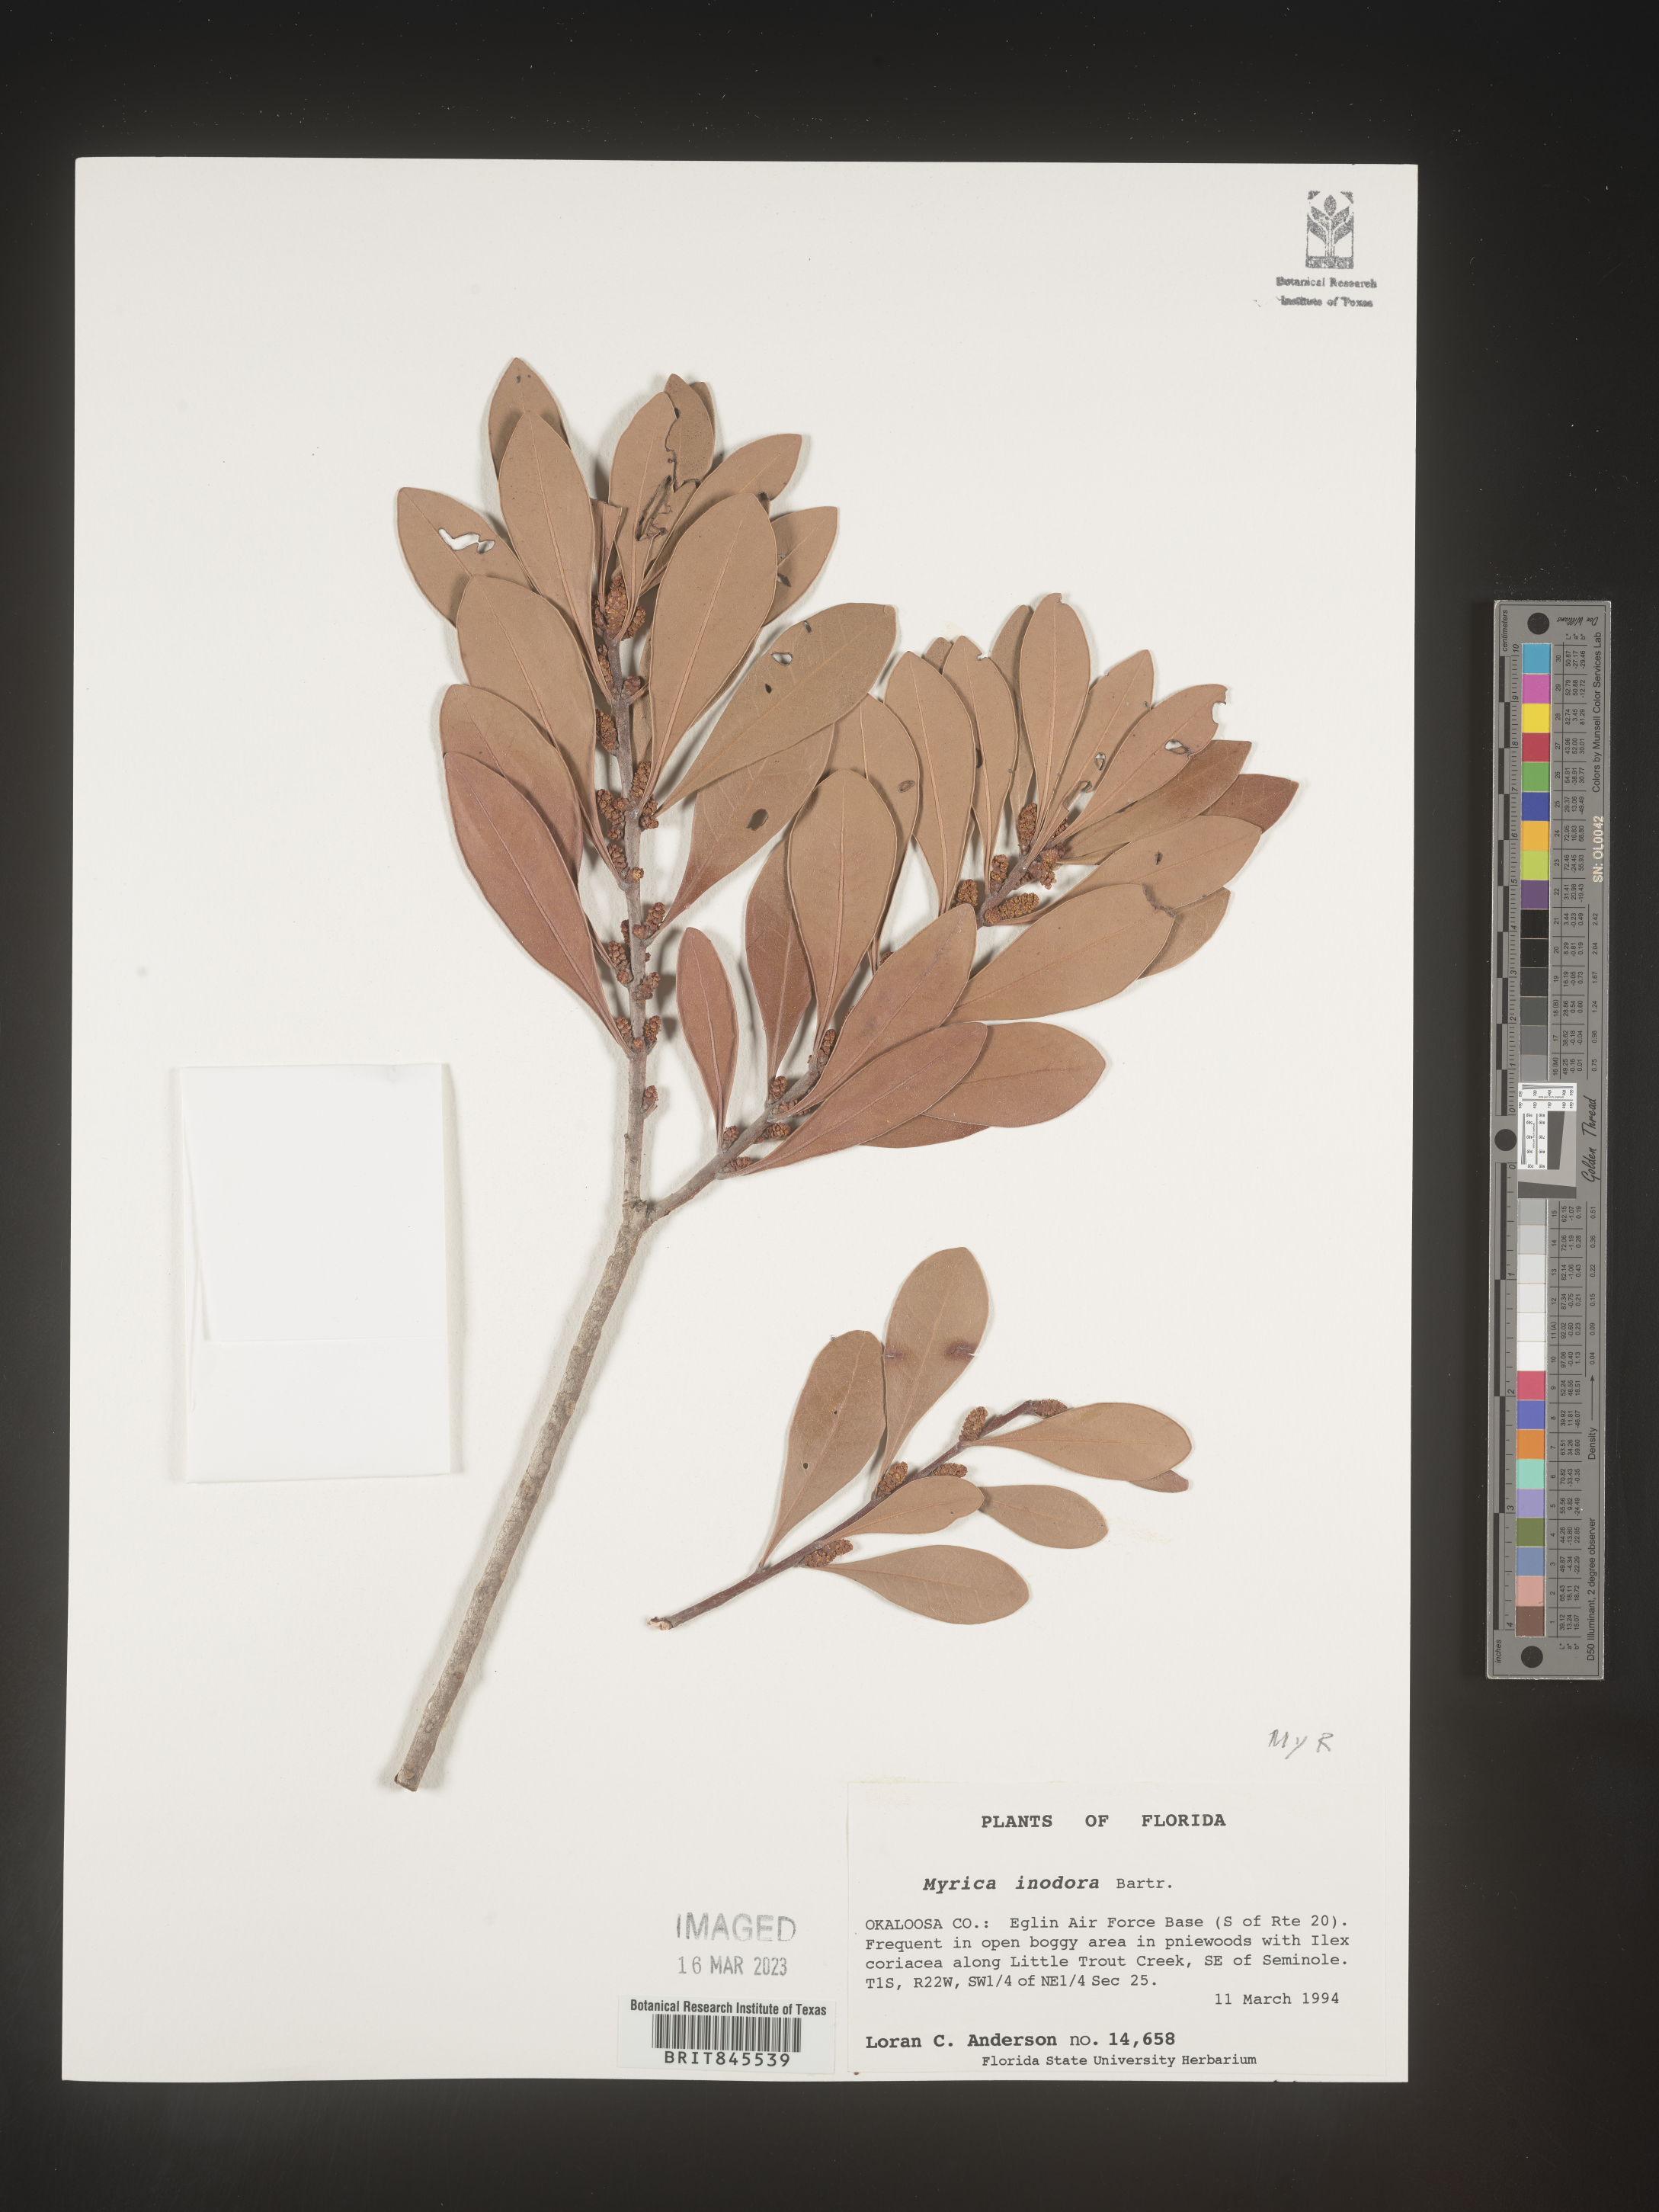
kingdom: Plantae
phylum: Tracheophyta
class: Magnoliopsida
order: Fagales
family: Myricaceae
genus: Myrica
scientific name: Myrica
